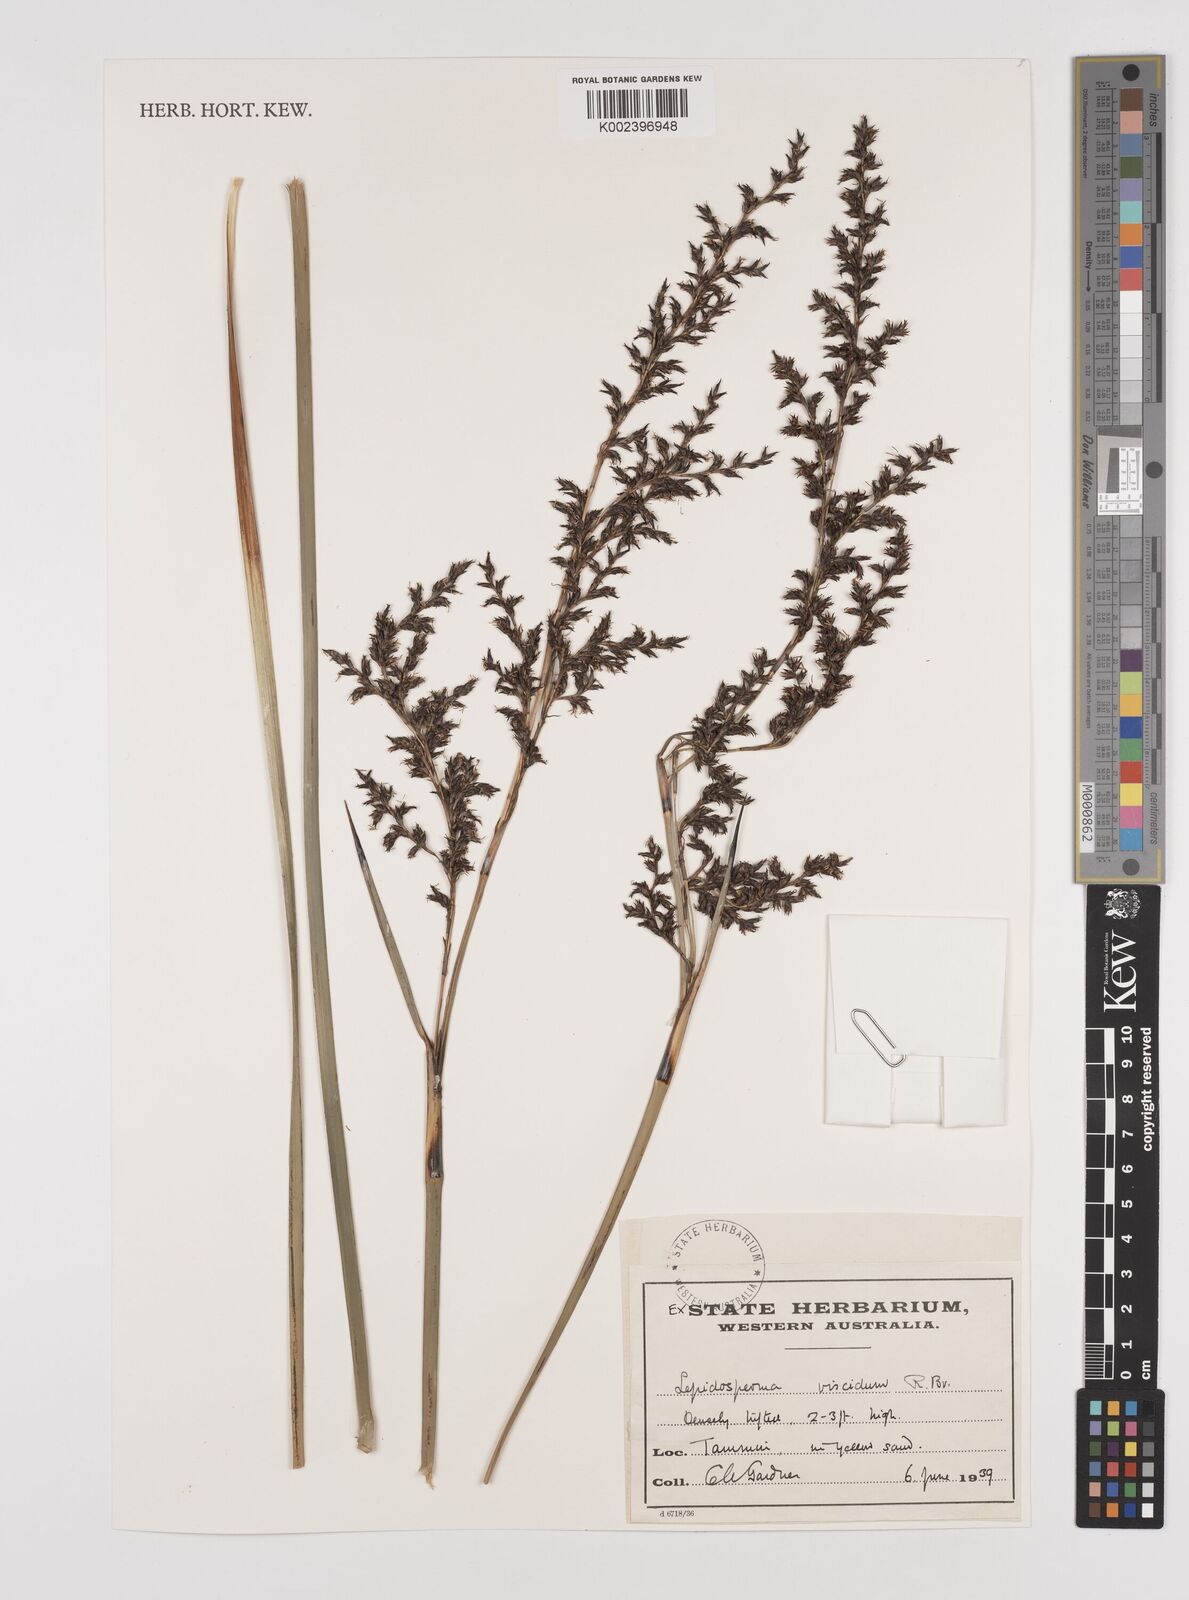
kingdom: Plantae
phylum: Tracheophyta
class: Liliopsida
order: Poales
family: Cyperaceae
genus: Lepidosperma
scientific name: Lepidosperma viscidum
